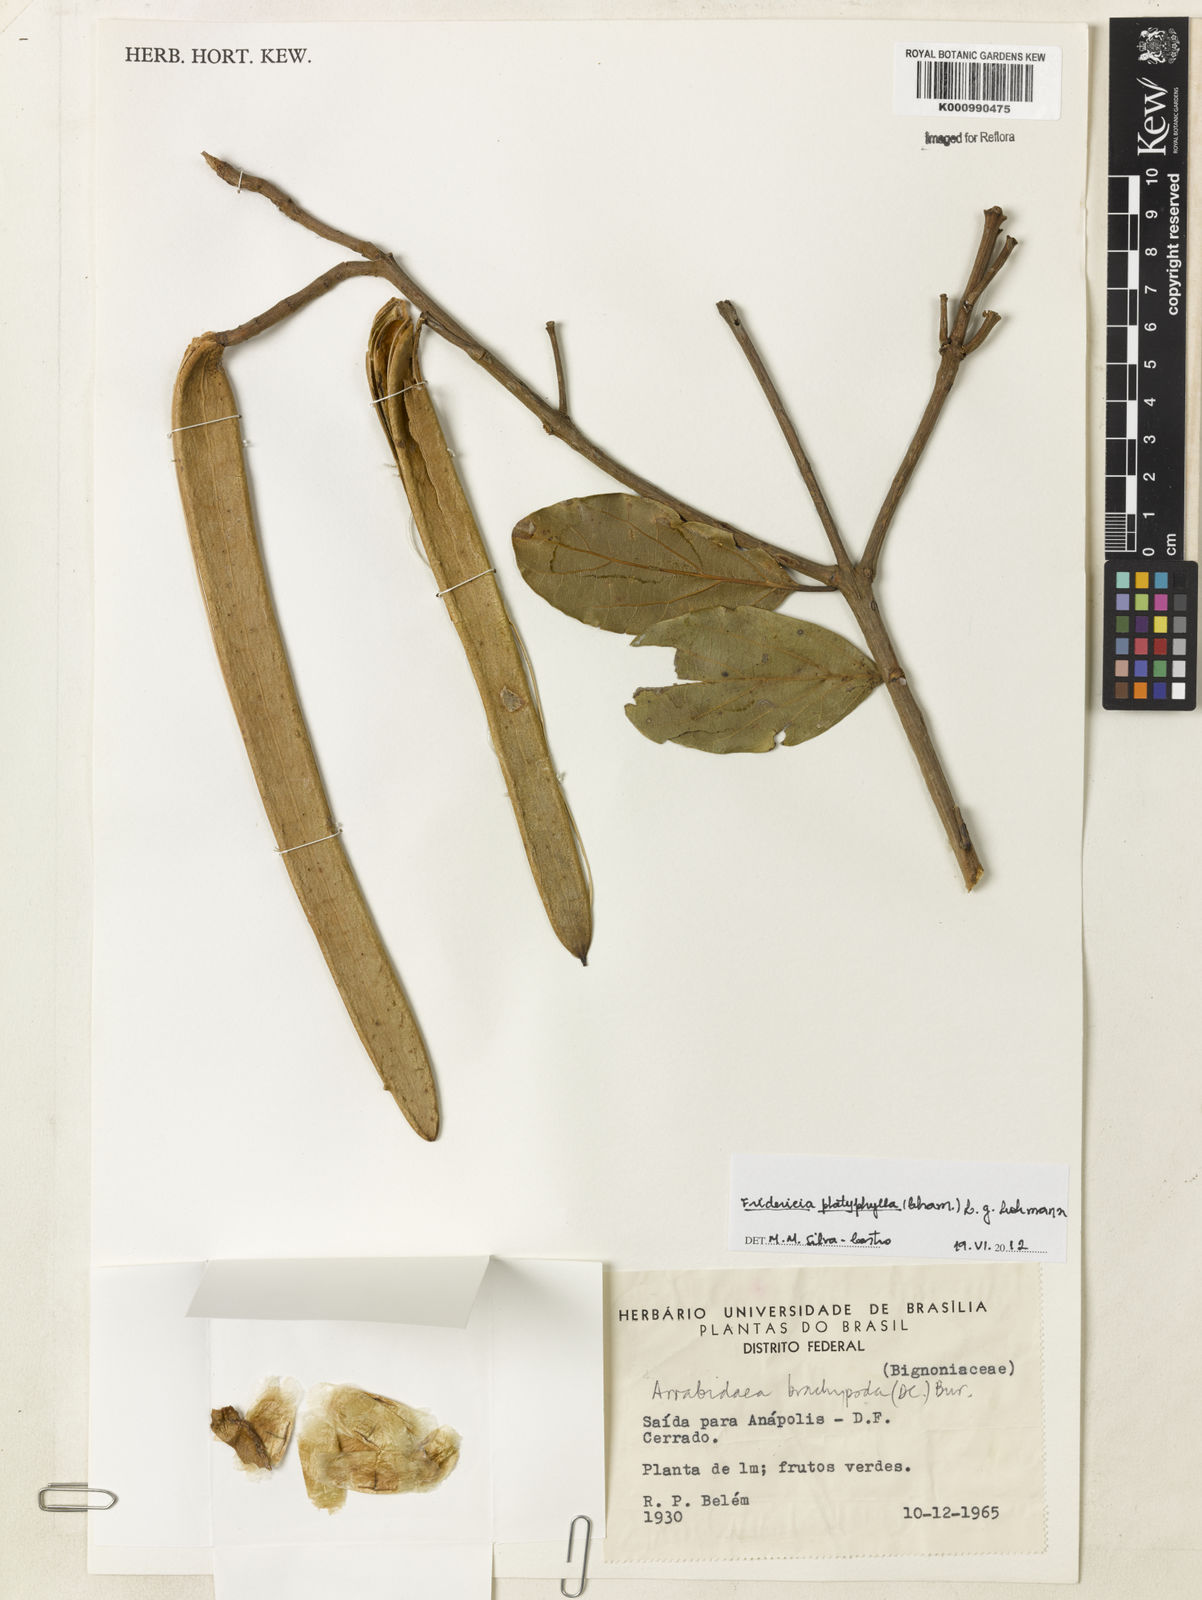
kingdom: Plantae
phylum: Tracheophyta
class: Magnoliopsida
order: Lamiales
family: Bignoniaceae
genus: Fridericia
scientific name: Fridericia platyphylla
